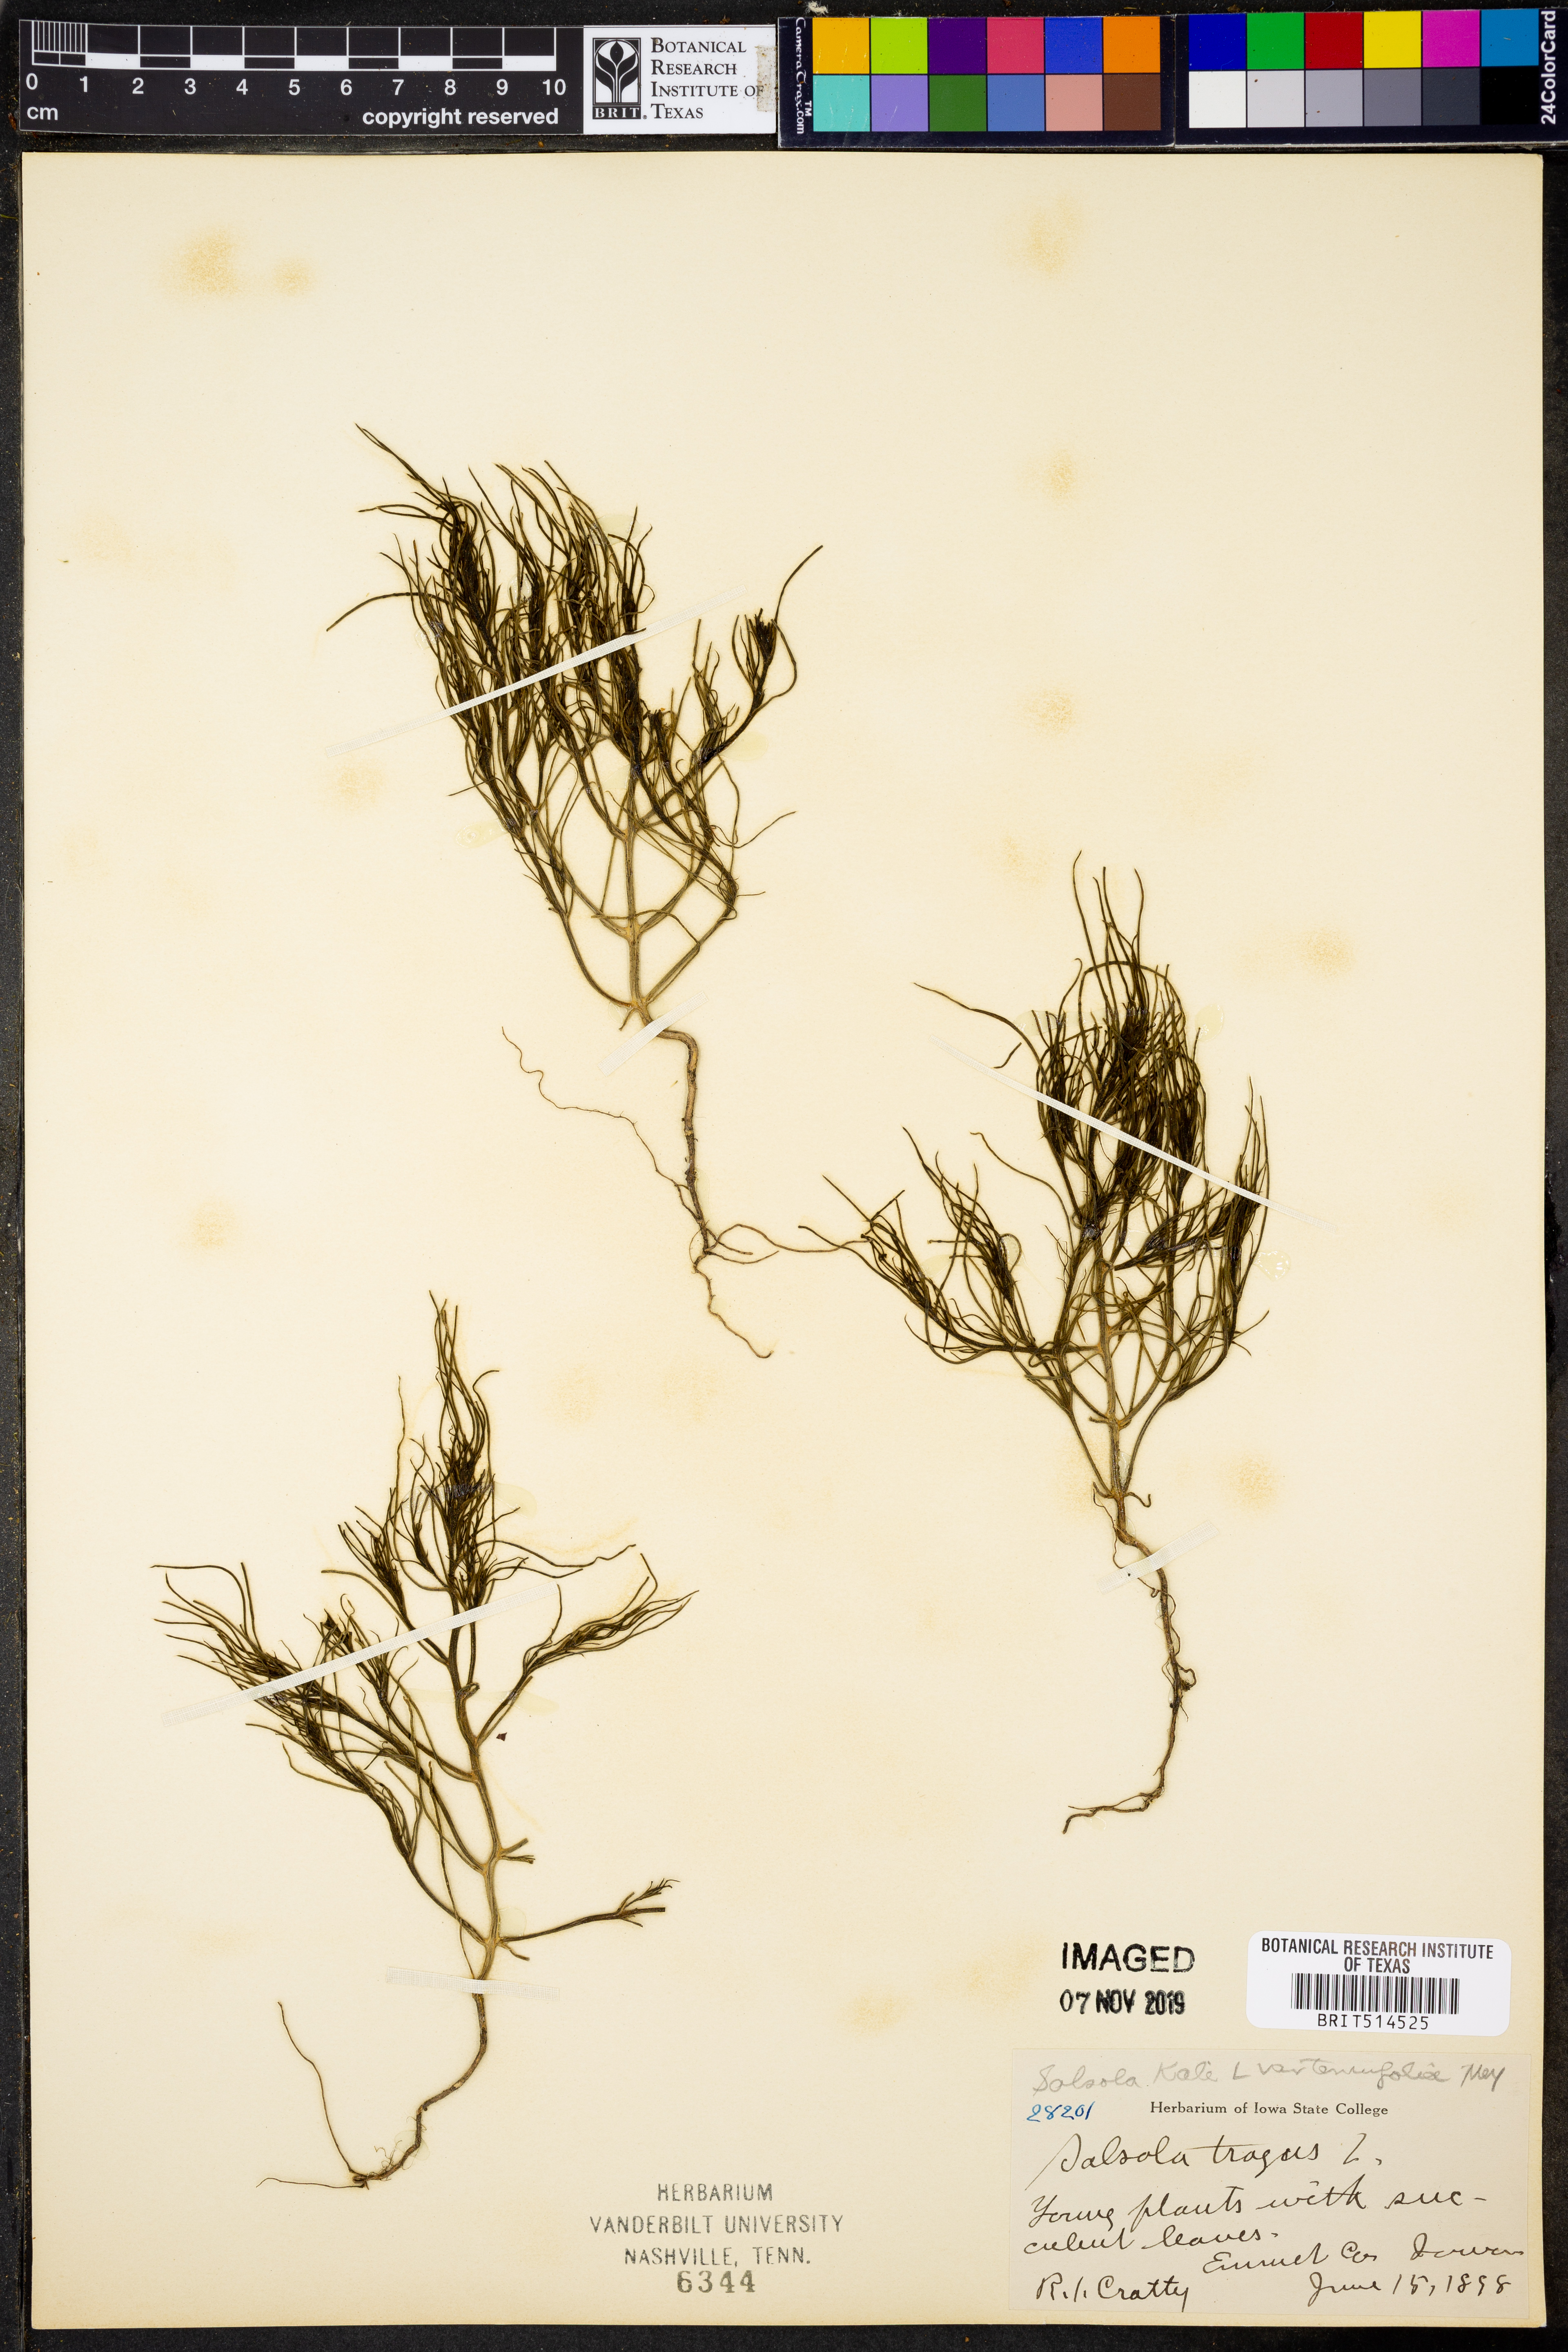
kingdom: Plantae
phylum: Tracheophyta
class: Magnoliopsida
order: Caryophyllales
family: Amaranthaceae
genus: Salsola
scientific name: Salsola tragus
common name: Prickly russian thistle
